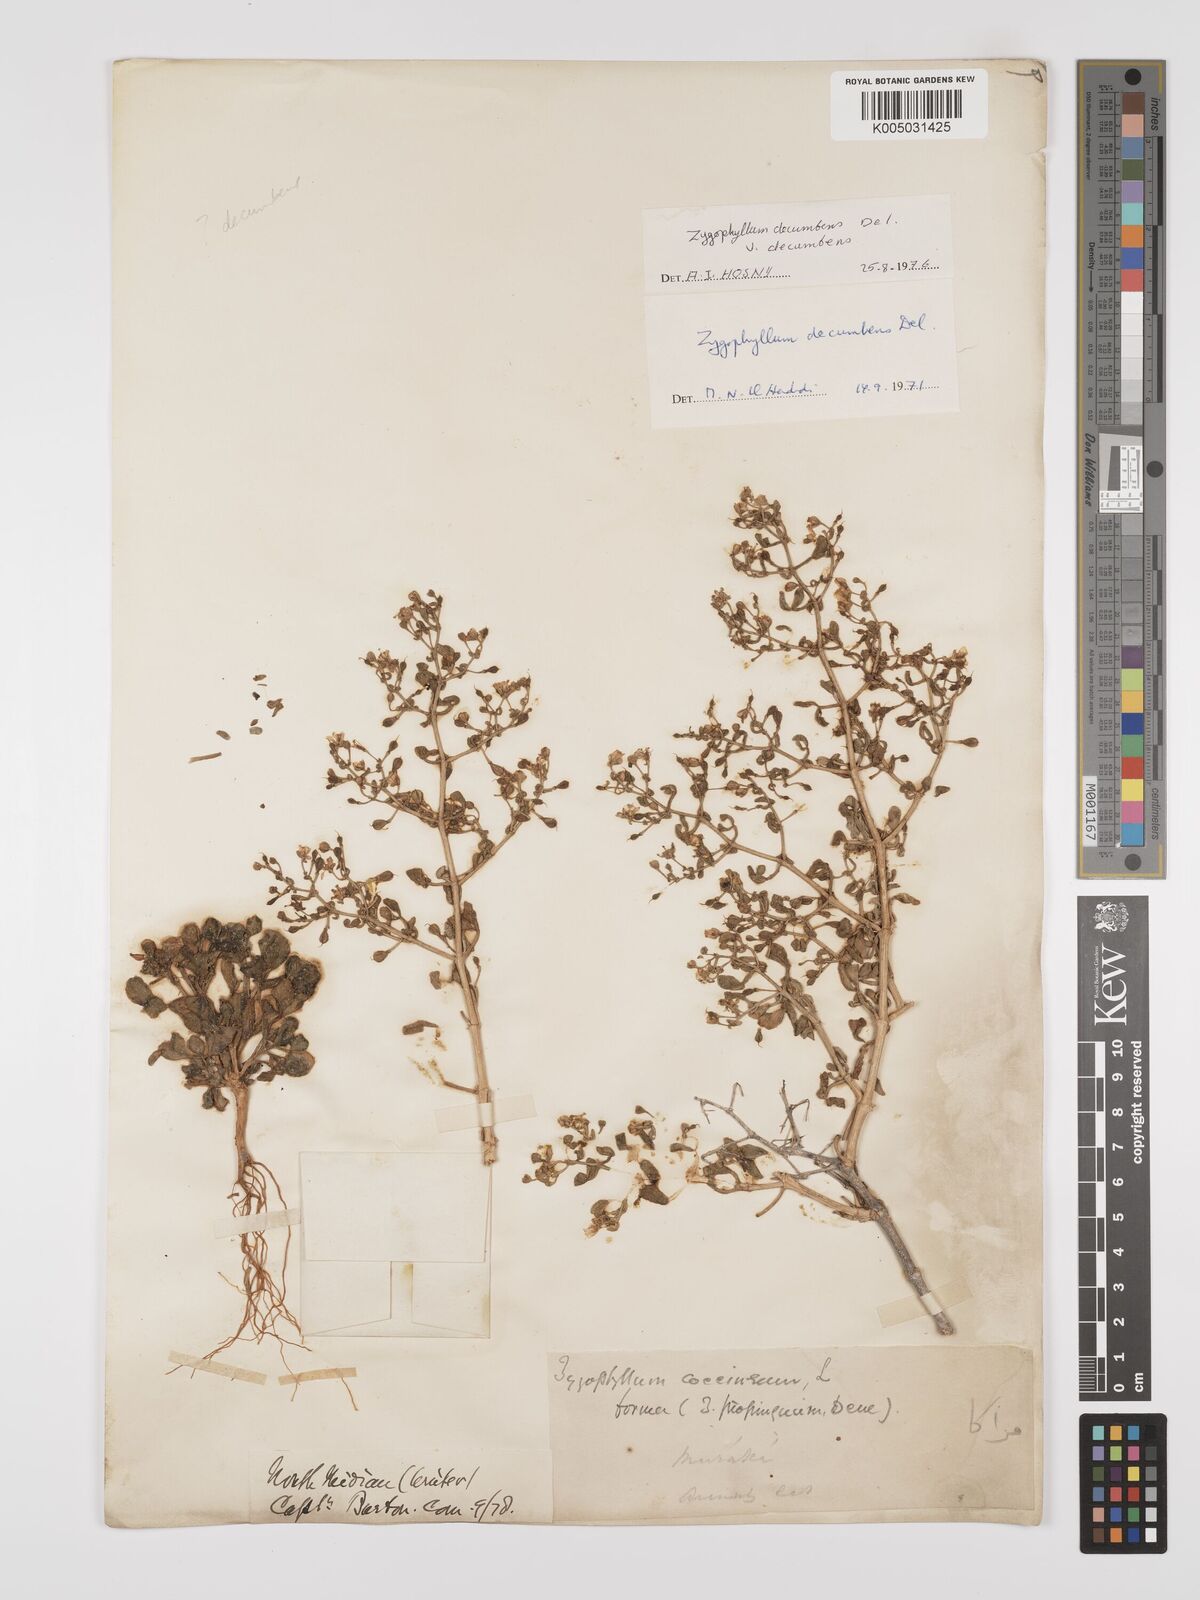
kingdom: Plantae
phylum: Tracheophyta
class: Magnoliopsida
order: Zygophyllales
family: Zygophyllaceae
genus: Tetraena
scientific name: Tetraena decumbens
